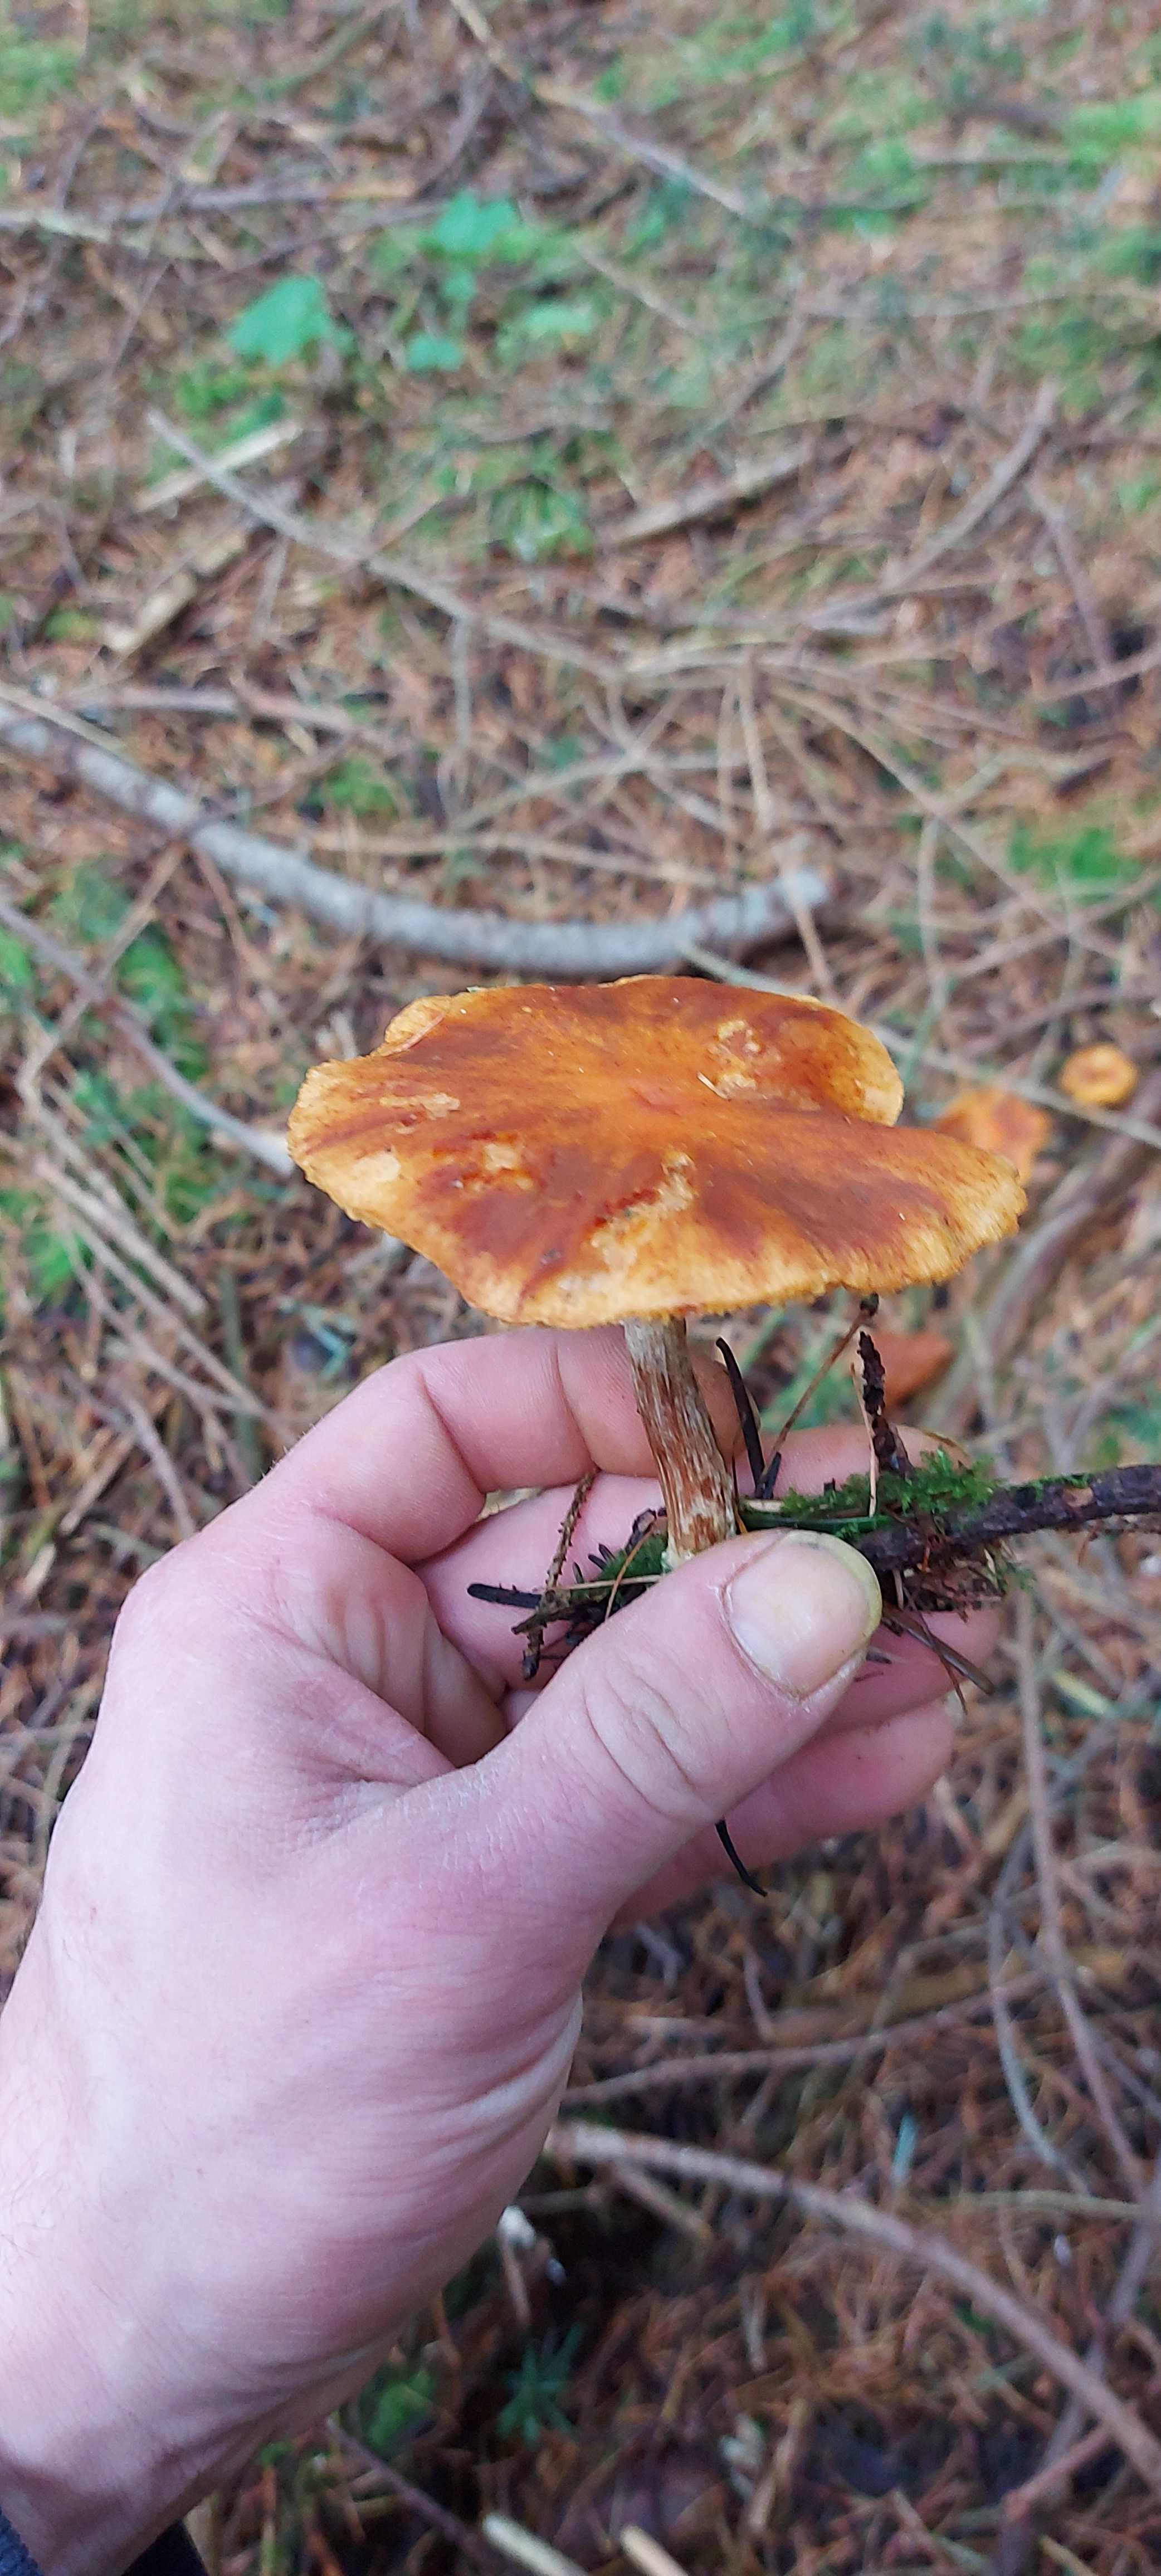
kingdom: Fungi
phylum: Basidiomycota
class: Agaricomycetes
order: Agaricales
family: Hymenogastraceae
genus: Gymnopilus
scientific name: Gymnopilus penetrans
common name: plettet flammehat
